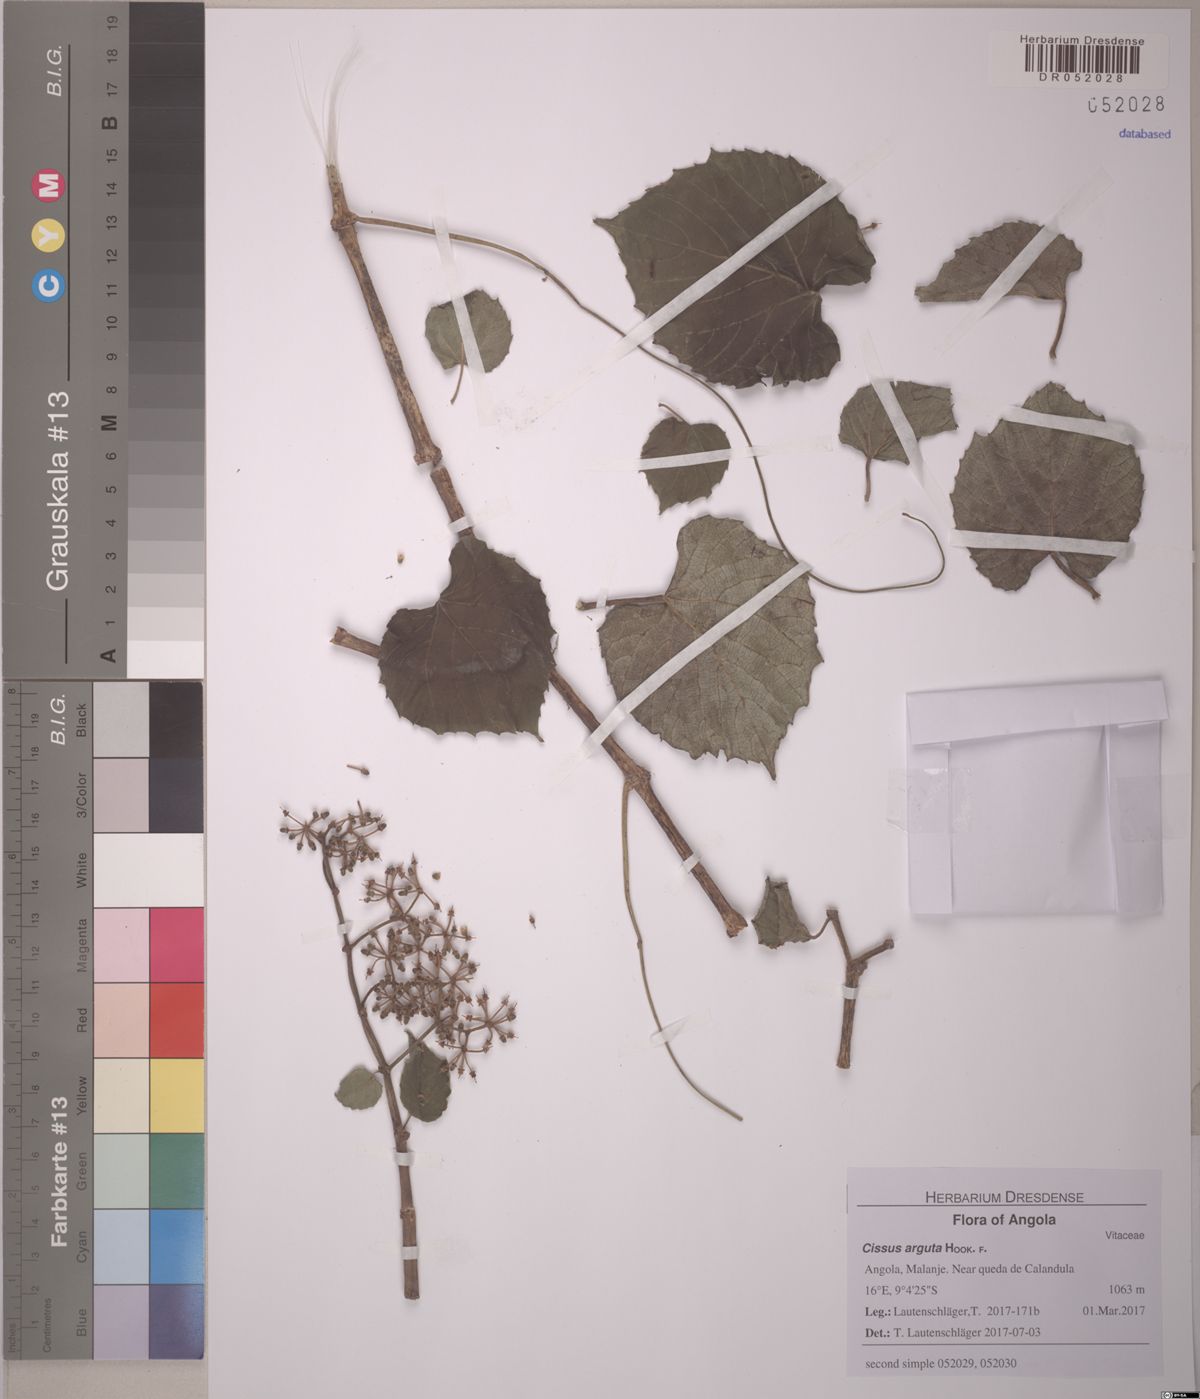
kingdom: Plantae
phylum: Tracheophyta
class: Magnoliopsida
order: Vitales
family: Vitaceae
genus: Cissus
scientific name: Cissus arguta
